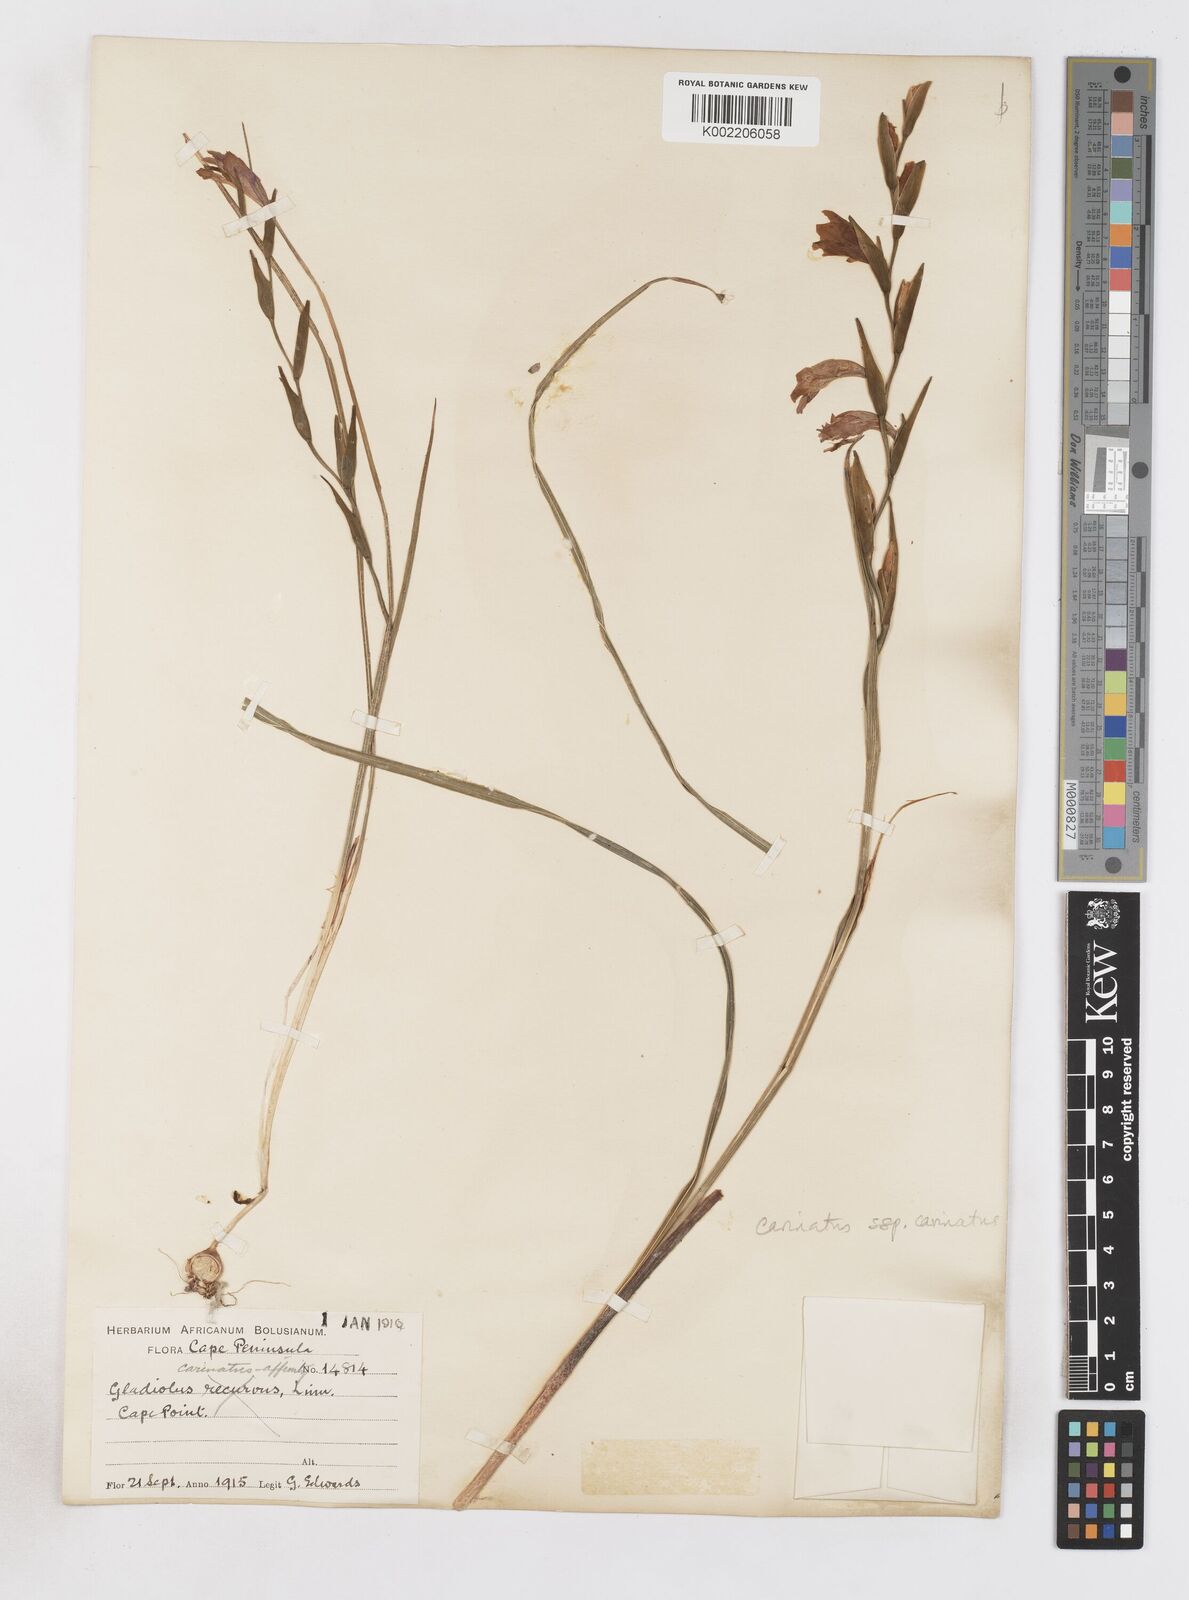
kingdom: Plantae
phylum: Tracheophyta
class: Liliopsida
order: Asparagales
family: Iridaceae
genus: Gladiolus
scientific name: Gladiolus carinatus
